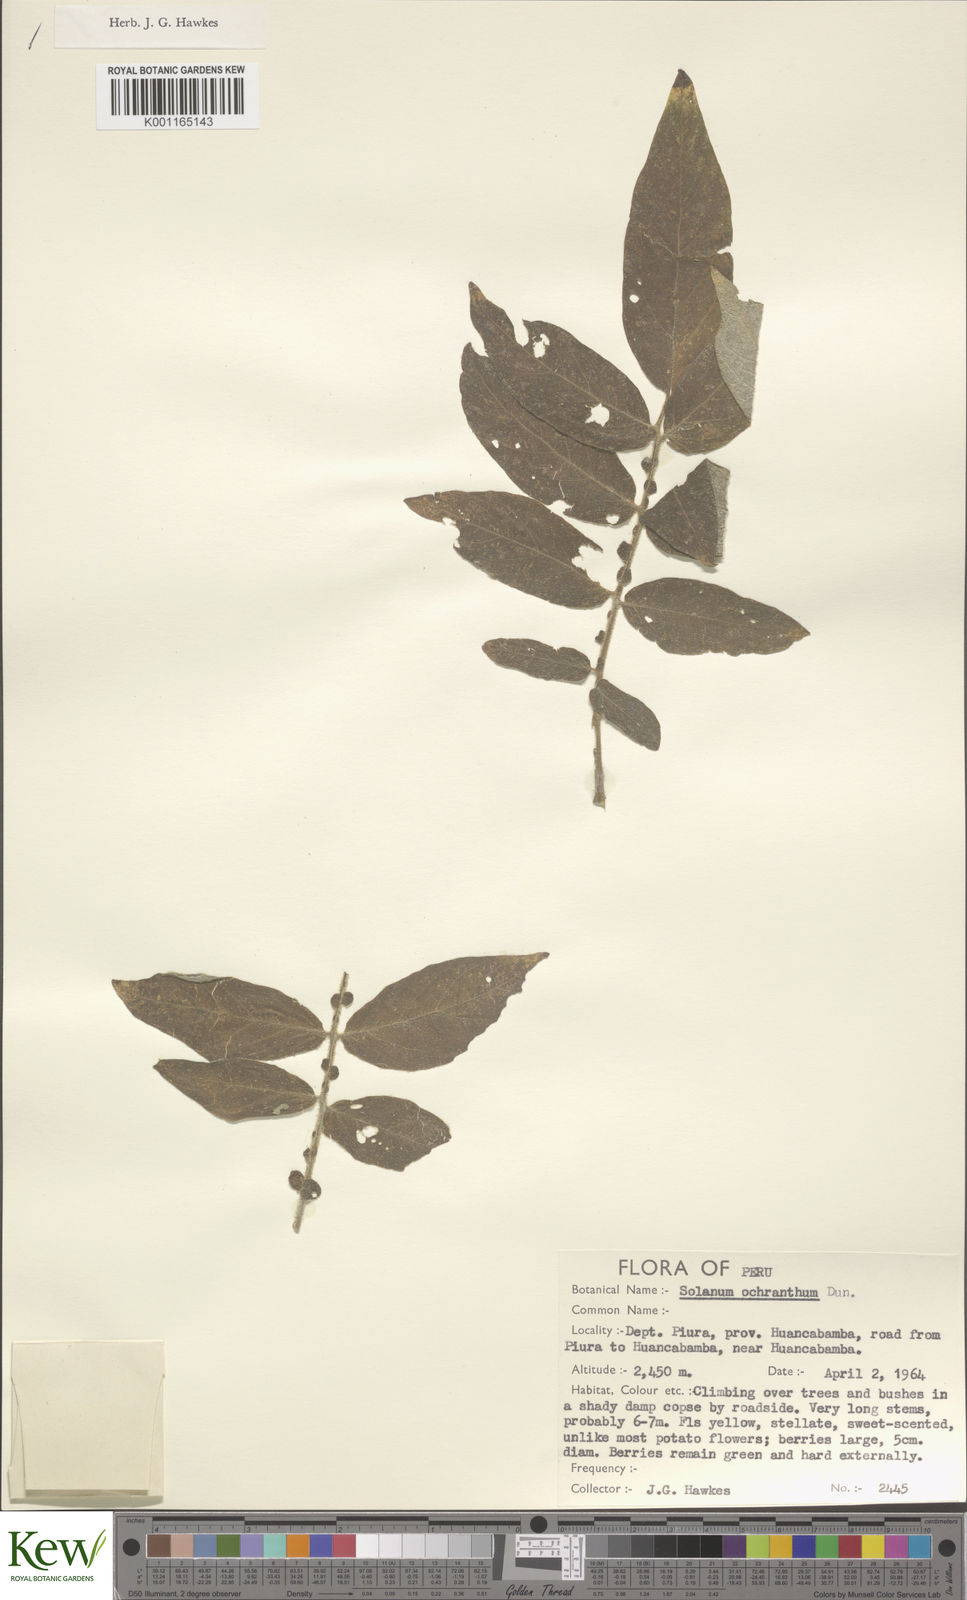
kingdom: Plantae
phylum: Tracheophyta
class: Magnoliopsida
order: Solanales
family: Solanaceae
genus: Solanum
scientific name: Solanum ochranthum
